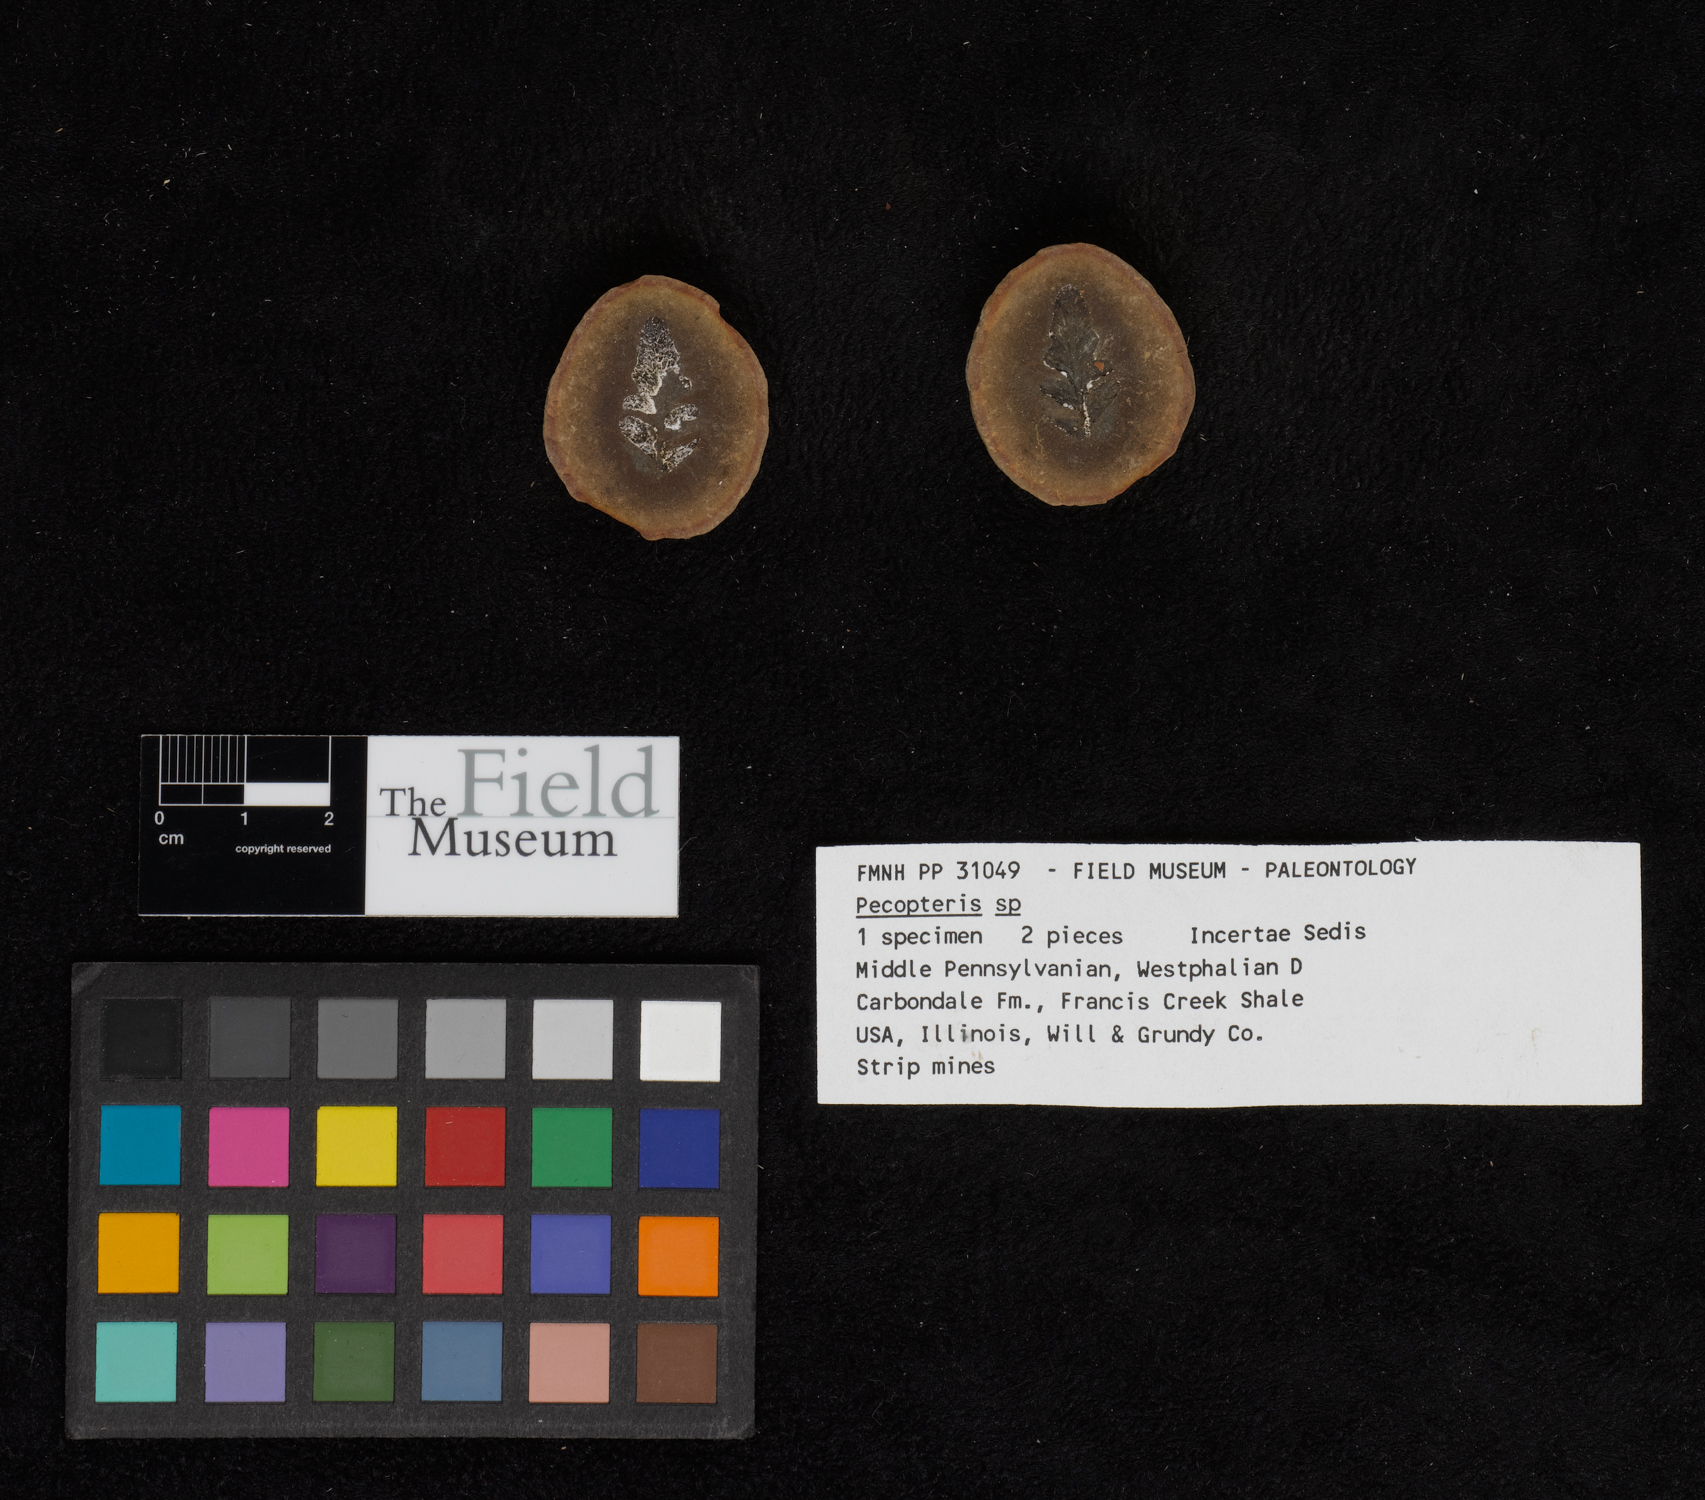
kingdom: Plantae
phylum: Tracheophyta
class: Polypodiopsida
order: Marattiales
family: Asterothecaceae
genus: Pecopteris
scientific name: Pecopteris
